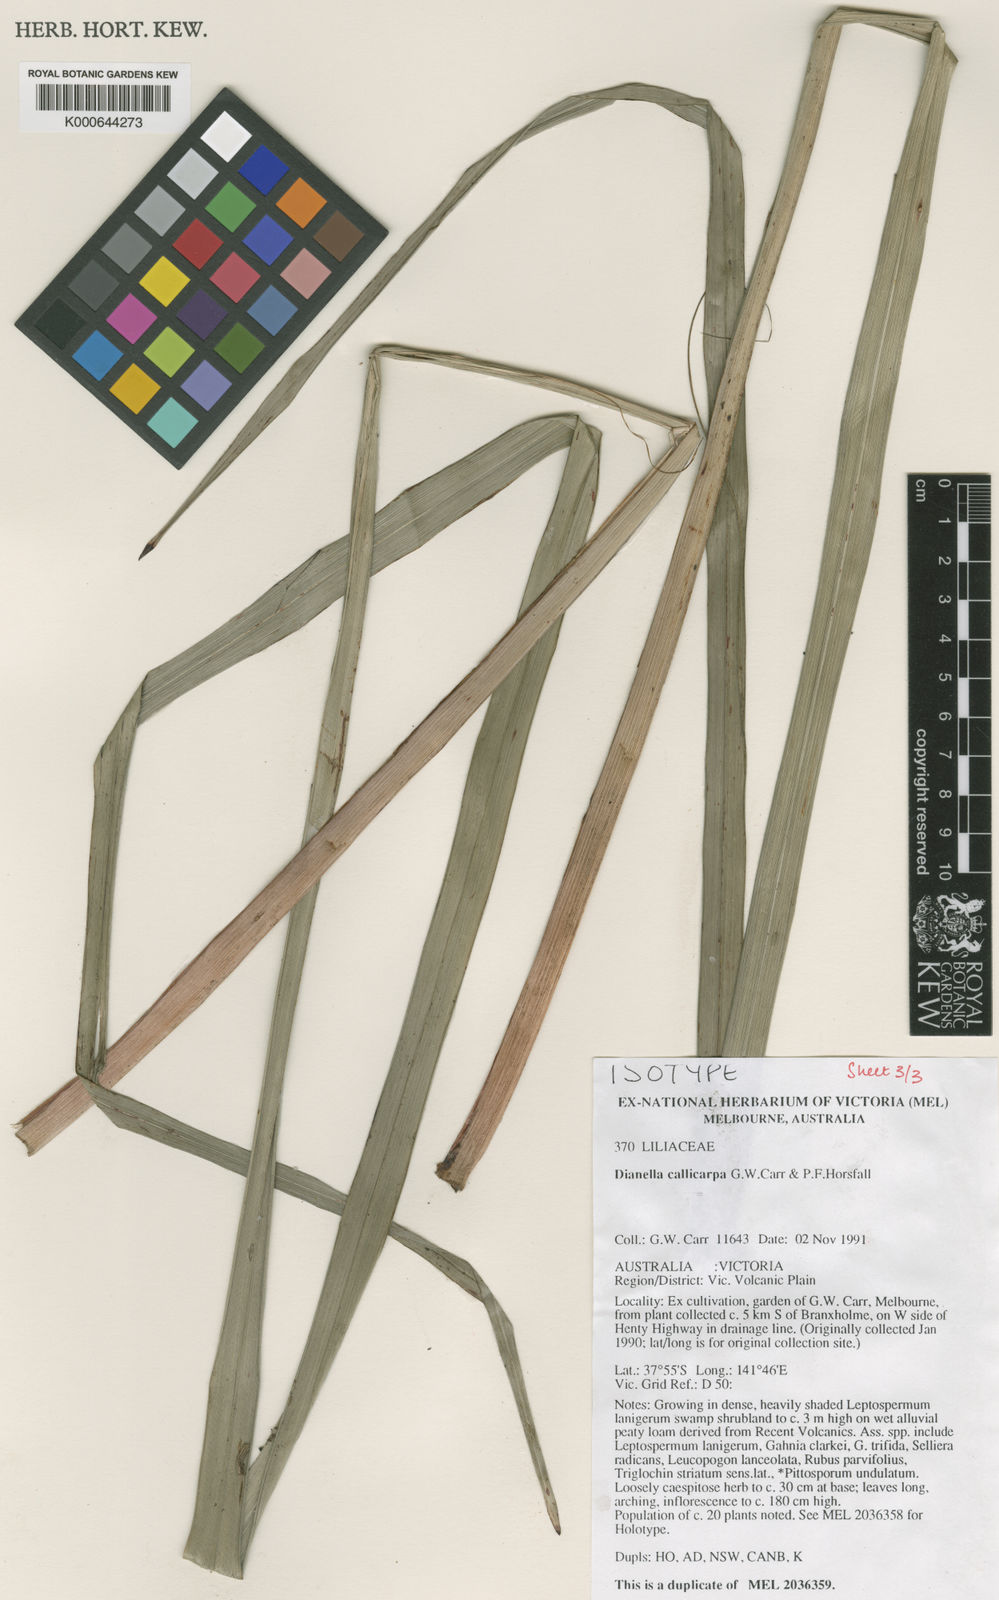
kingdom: Plantae
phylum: Tracheophyta
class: Liliopsida
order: Asparagales
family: Asphodelaceae
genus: Dianella
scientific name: Dianella callicarpa
